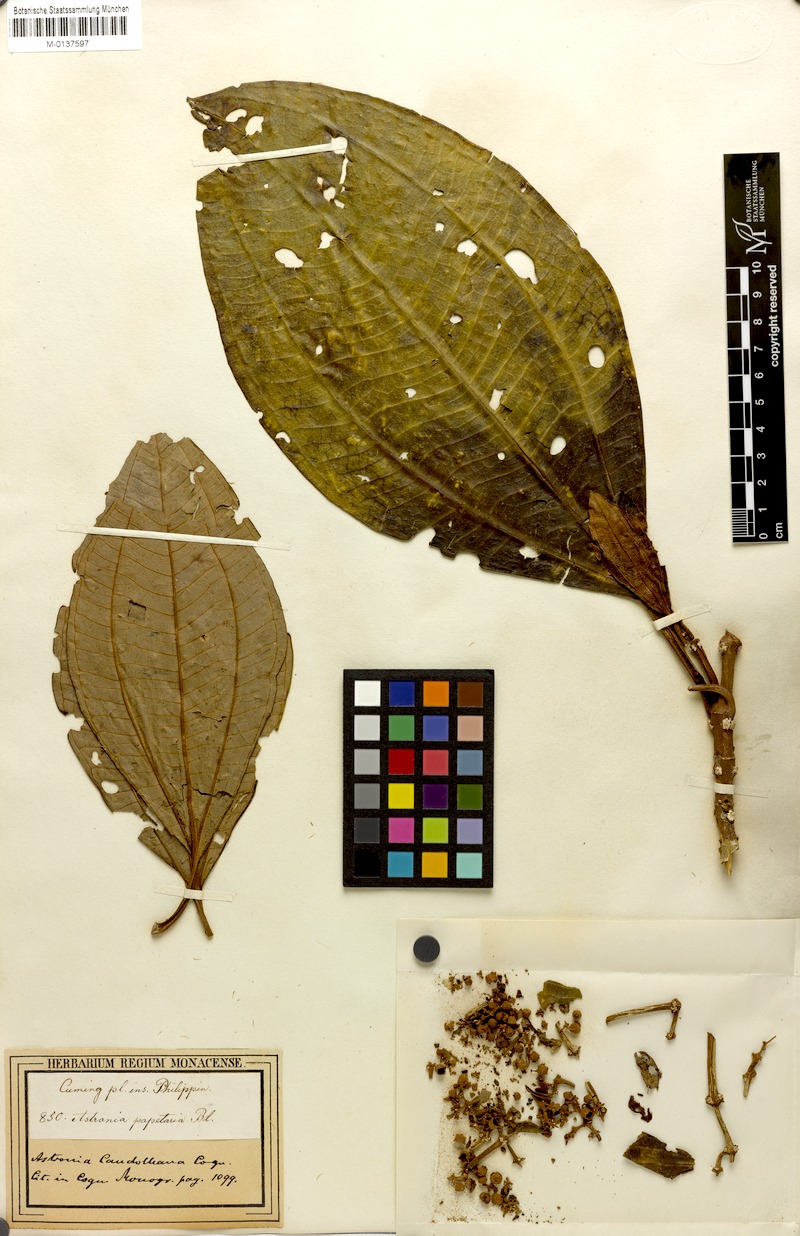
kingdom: Plantae
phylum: Tracheophyta
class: Magnoliopsida
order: Myrtales
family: Melastomataceae
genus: Astronia
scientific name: Astronia candolleana
